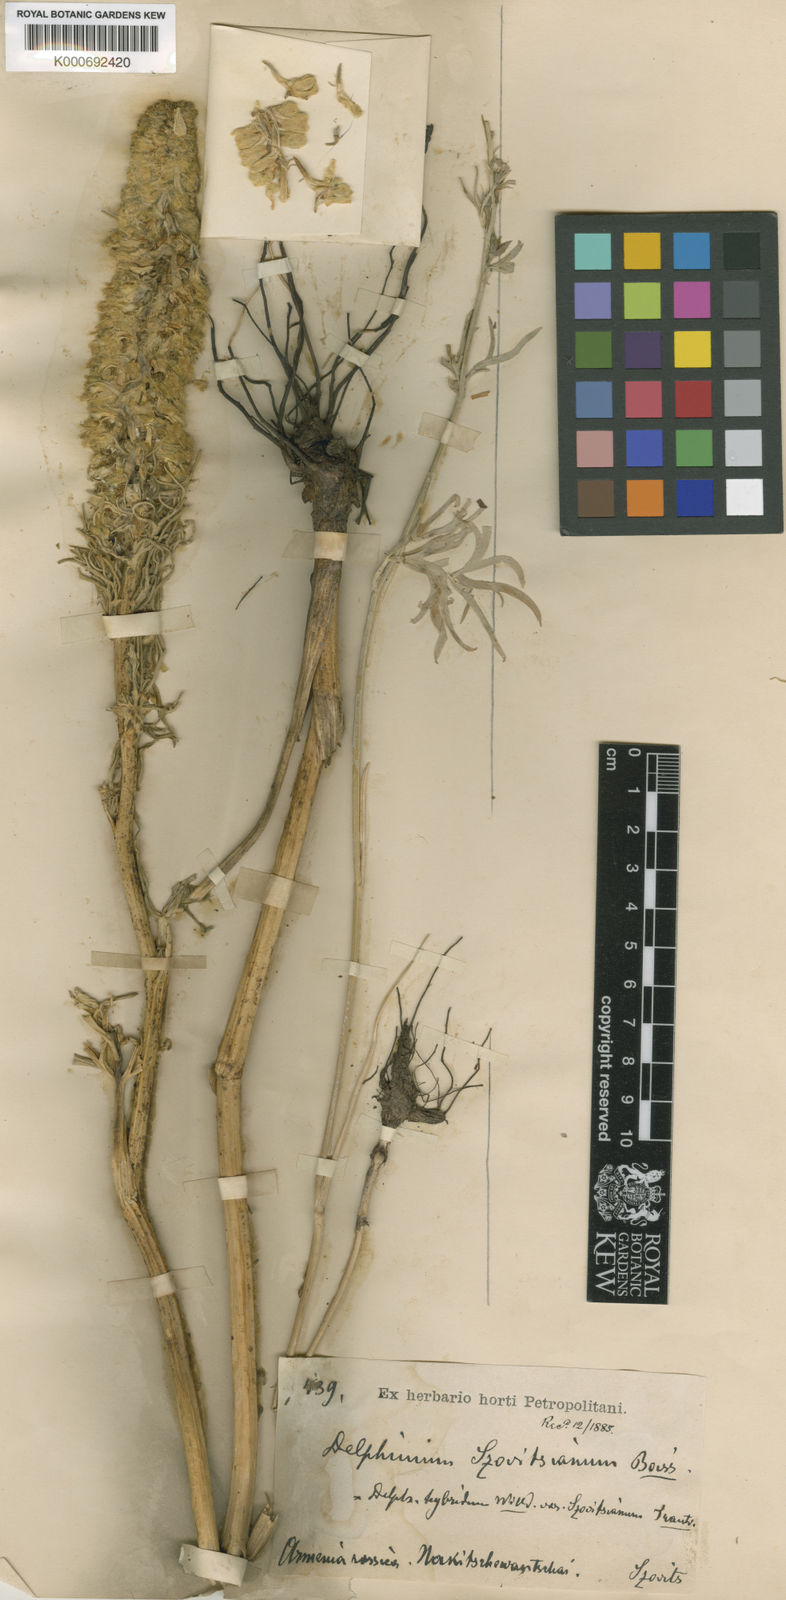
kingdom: Plantae
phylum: Tracheophyta
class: Magnoliopsida
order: Ranunculales
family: Ranunculaceae
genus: Delphinium
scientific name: Delphinium szowitsianum
